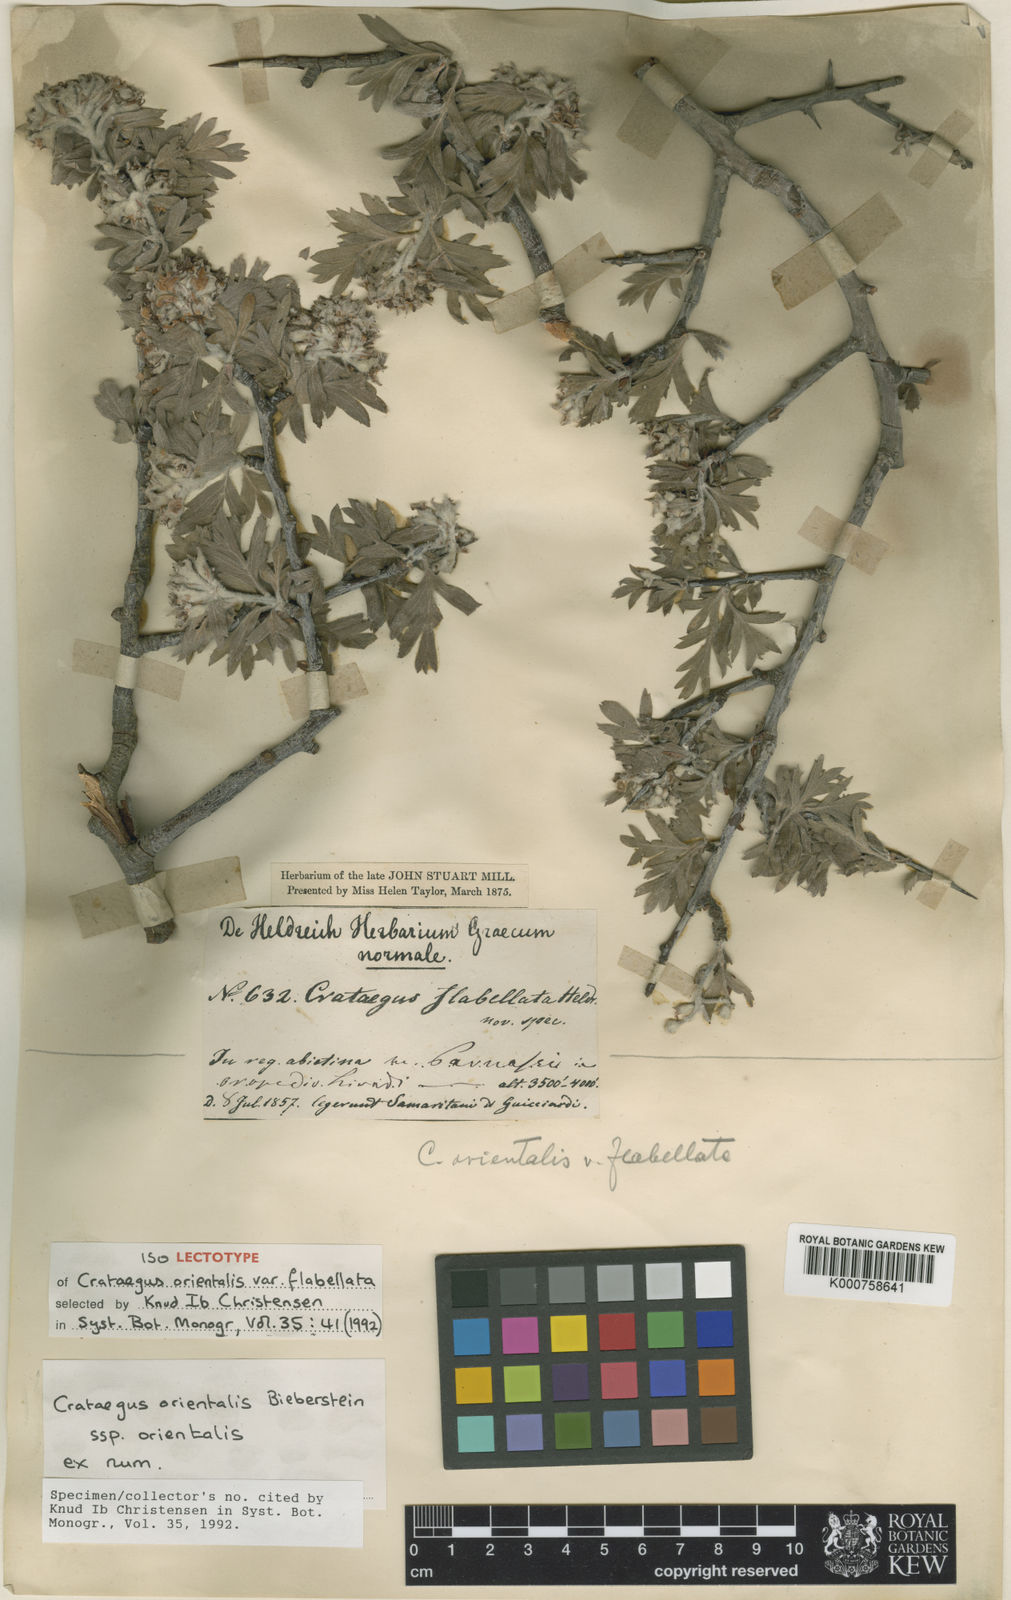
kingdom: Plantae
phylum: Tracheophyta
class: Magnoliopsida
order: Rosales
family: Rosaceae
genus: Crataegus
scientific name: Crataegus orientalis
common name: Oriental hawthorn
